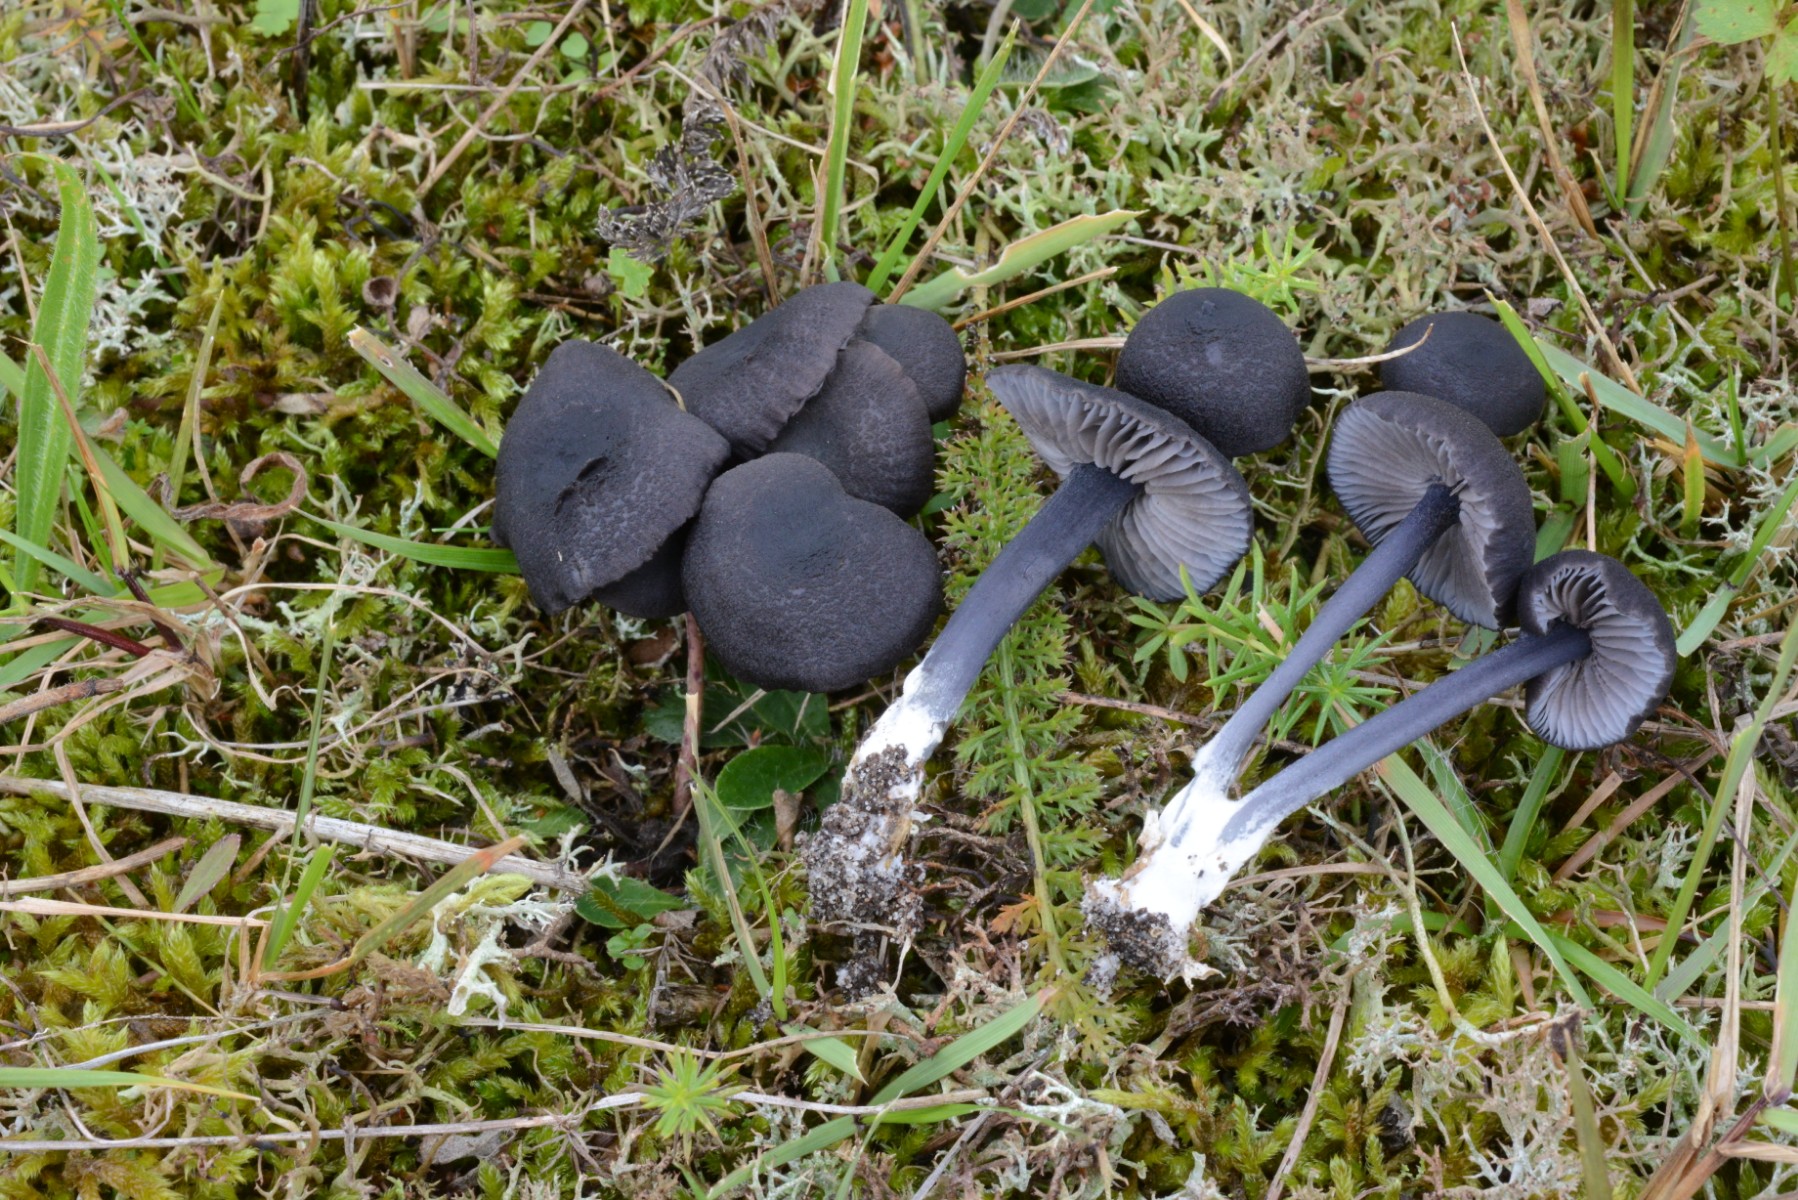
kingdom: Fungi
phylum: Basidiomycota
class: Agaricomycetes
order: Agaricales
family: Entolomataceae
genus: Entoloma
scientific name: Entoloma chalybeum
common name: blåbladet rødblad
